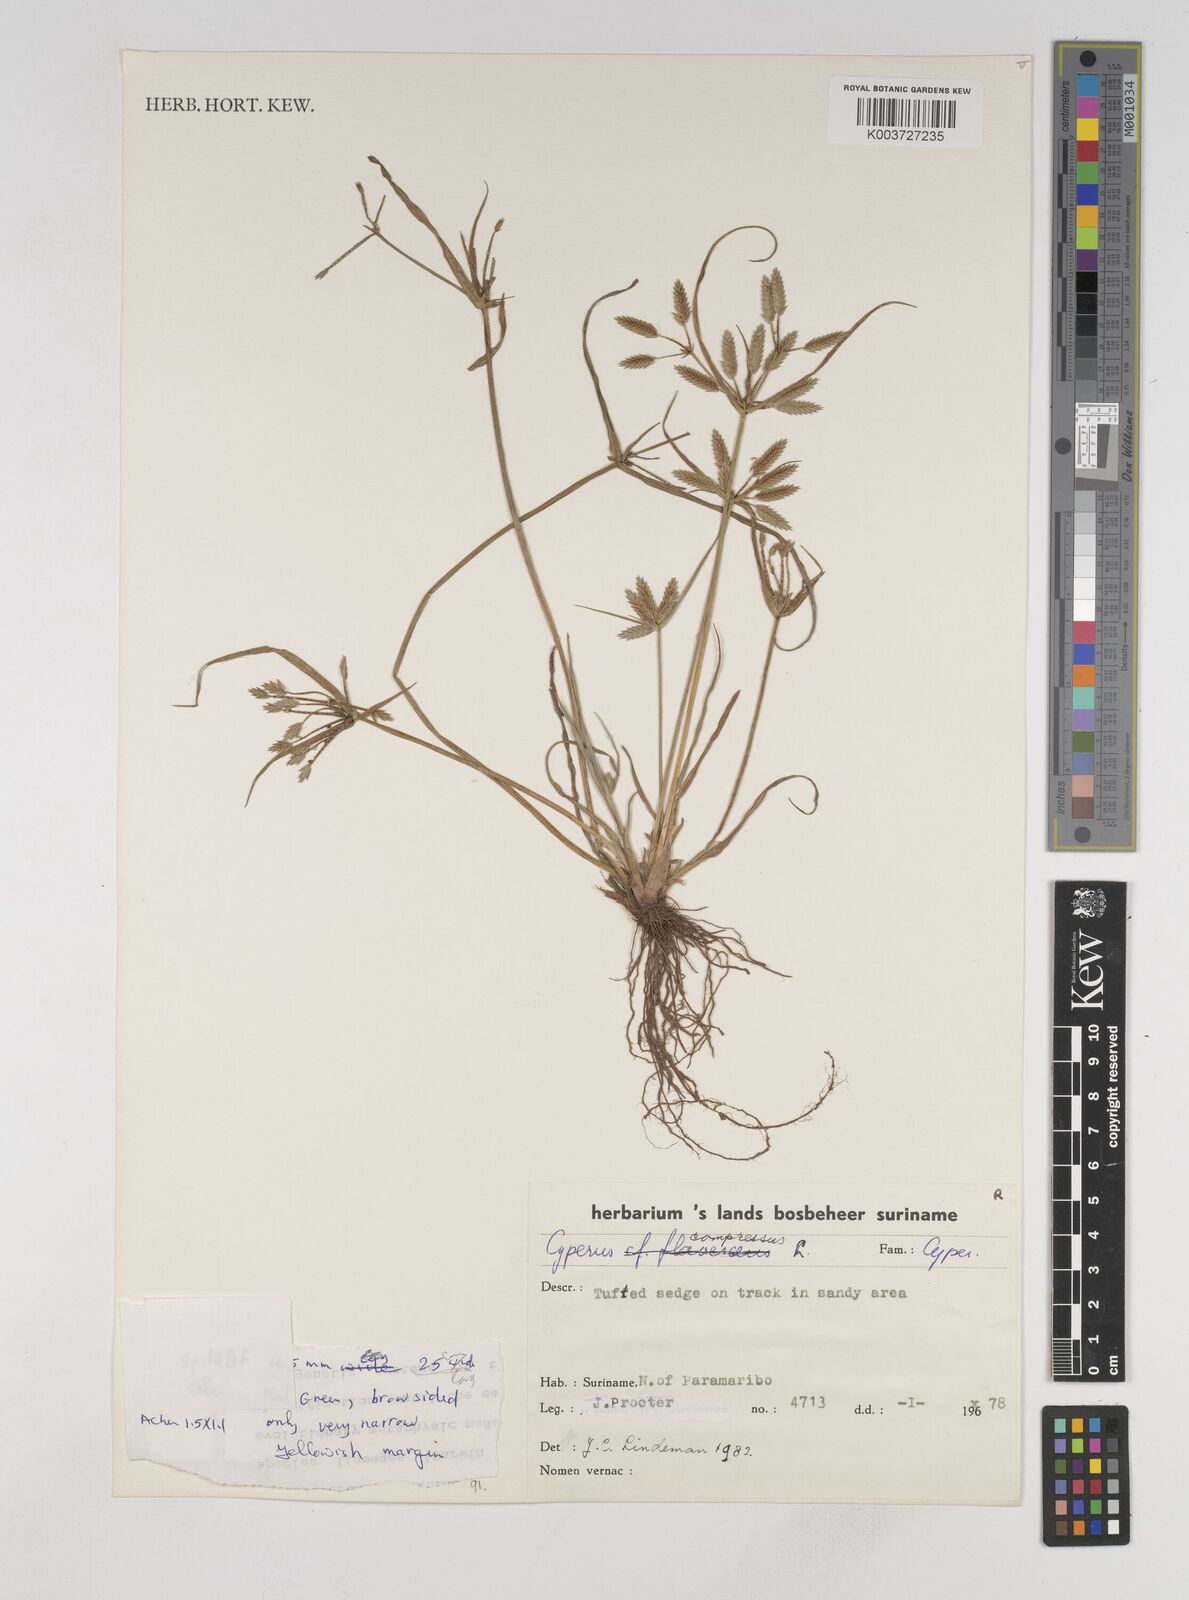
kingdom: Plantae
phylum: Tracheophyta
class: Liliopsida
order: Poales
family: Cyperaceae
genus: Cyperus
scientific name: Cyperus compressus
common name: Poorland flatsedge
